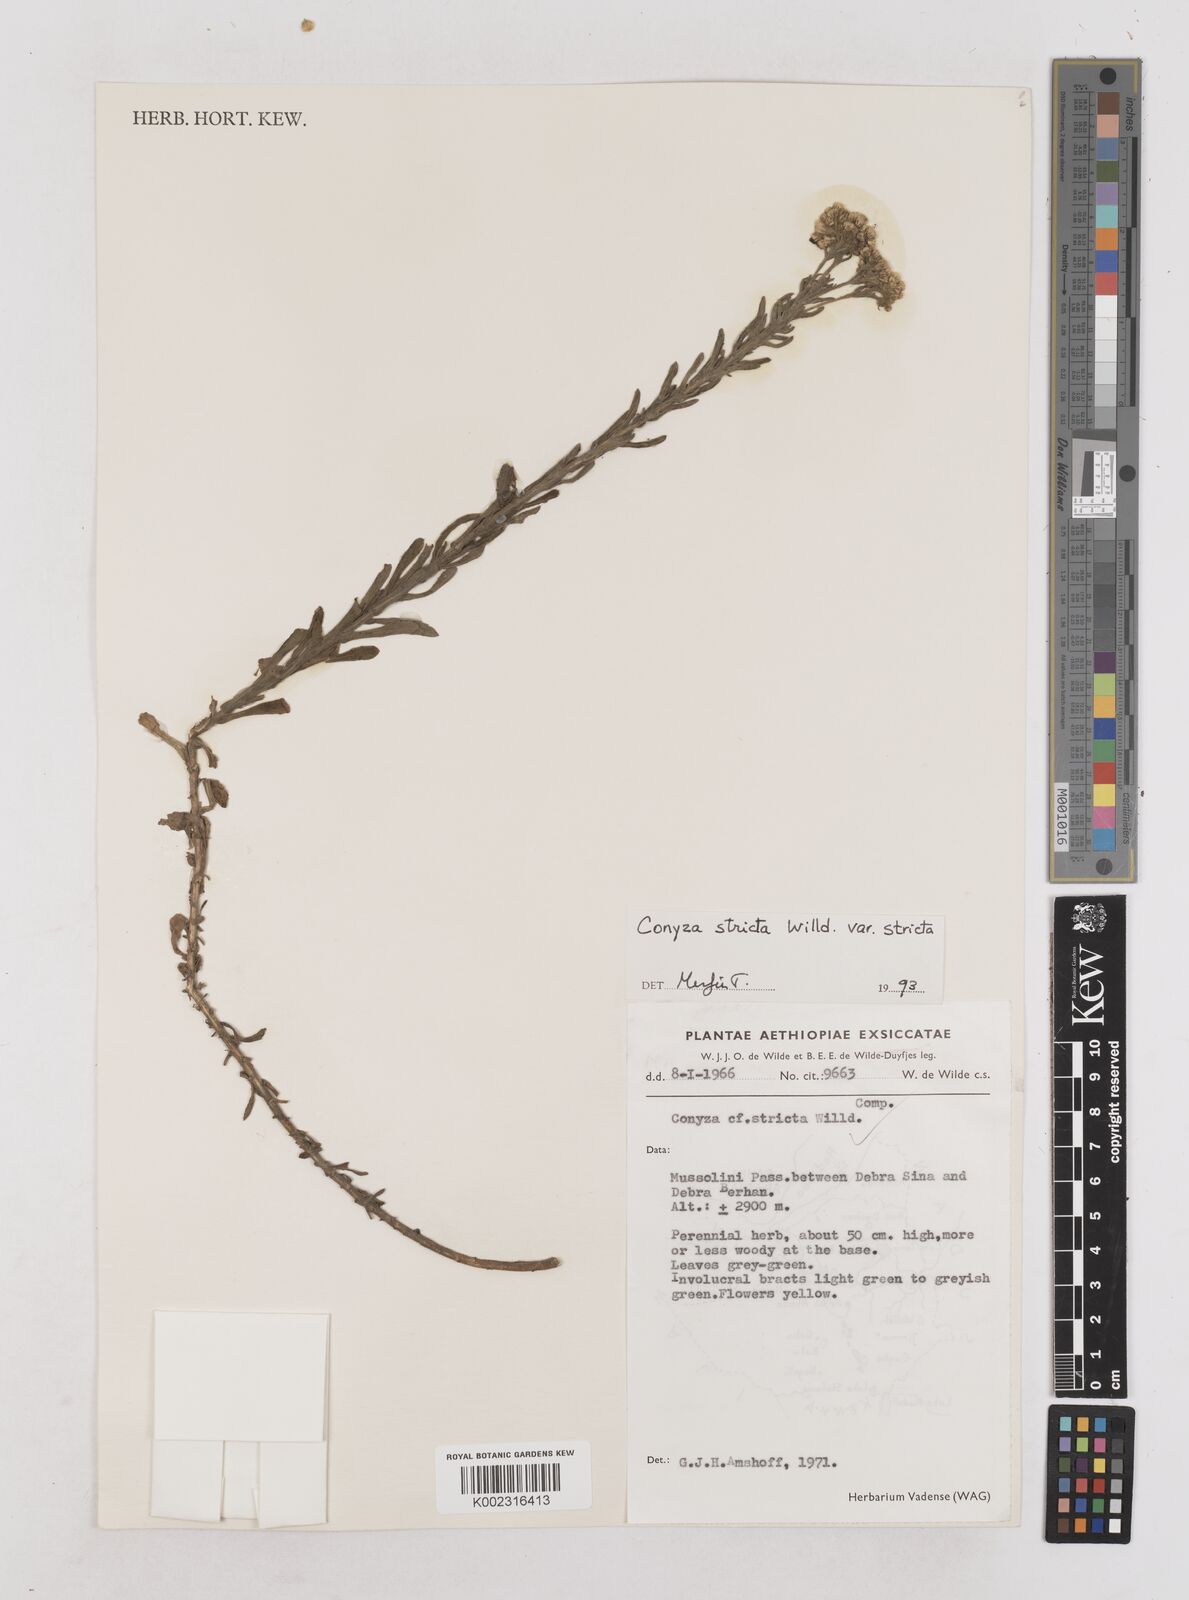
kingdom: Plantae
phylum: Tracheophyta
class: Magnoliopsida
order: Asterales
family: Asteraceae
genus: Nidorella
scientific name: Nidorella triloba
